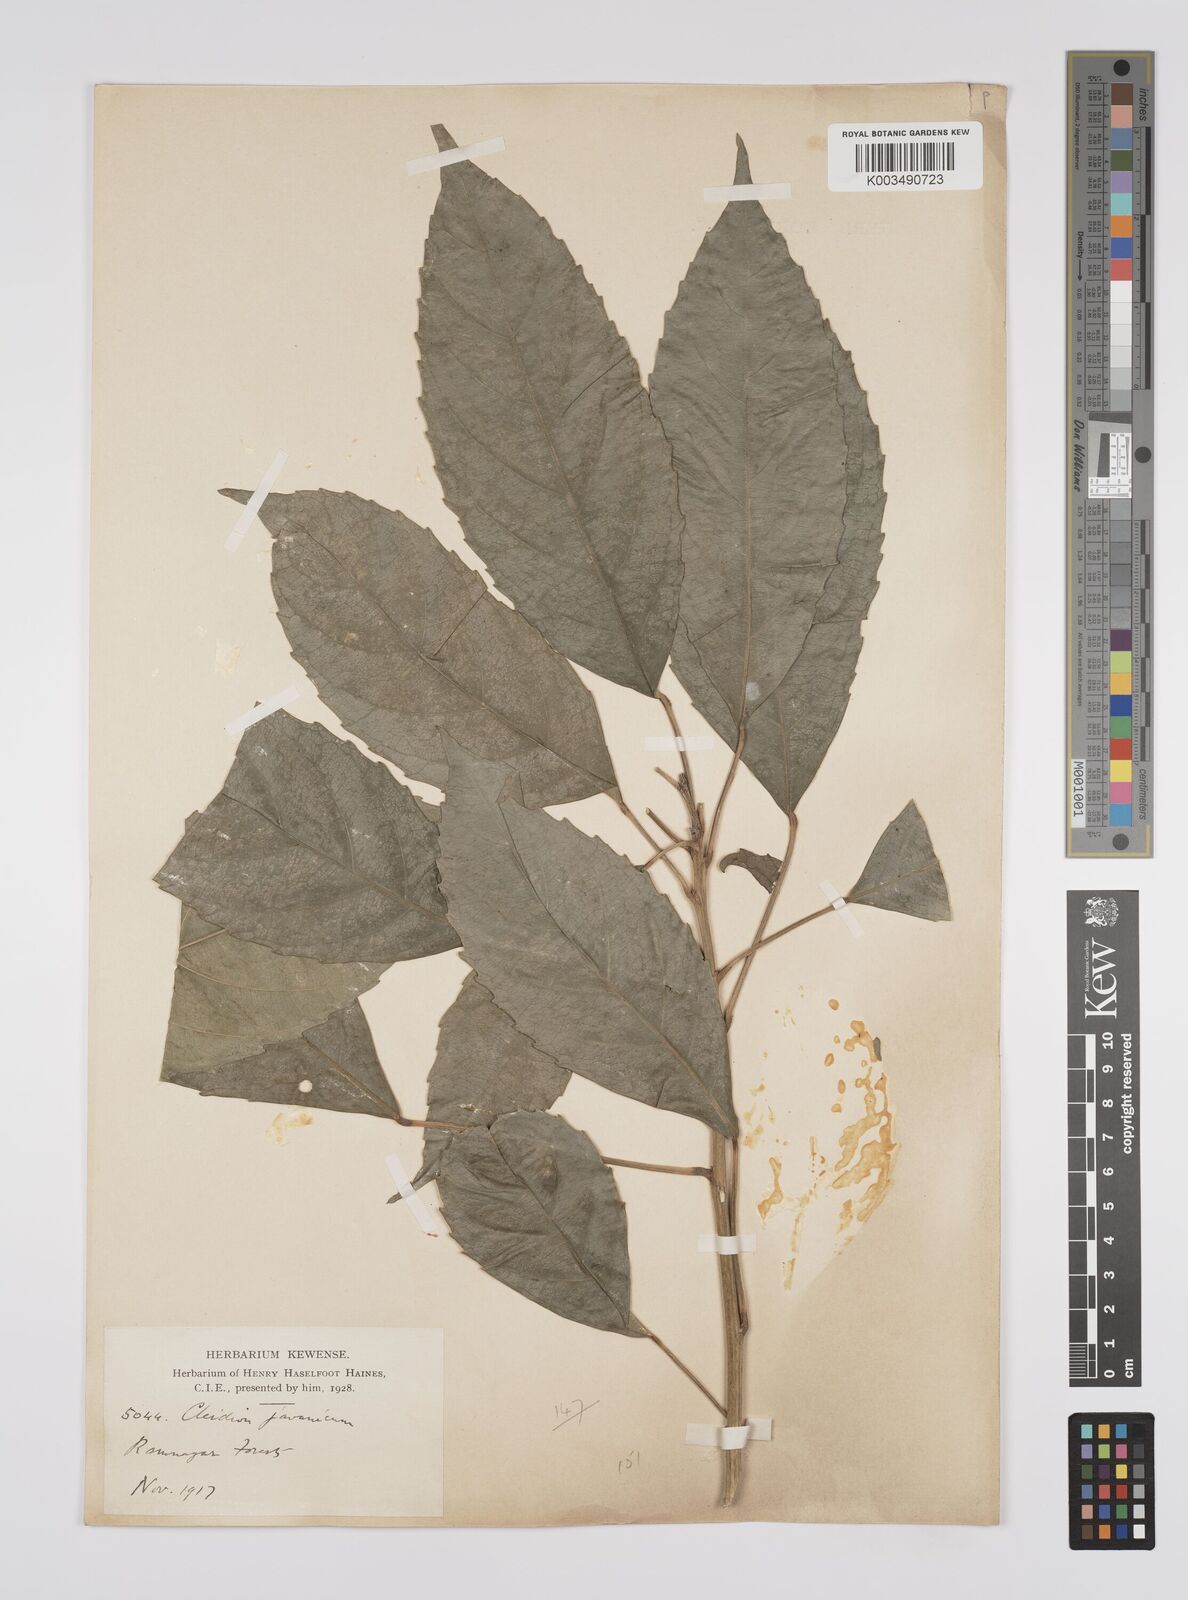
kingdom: Plantae
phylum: Tracheophyta
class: Magnoliopsida
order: Malpighiales
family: Euphorbiaceae
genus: Acalypha
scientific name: Acalypha spiciflora
